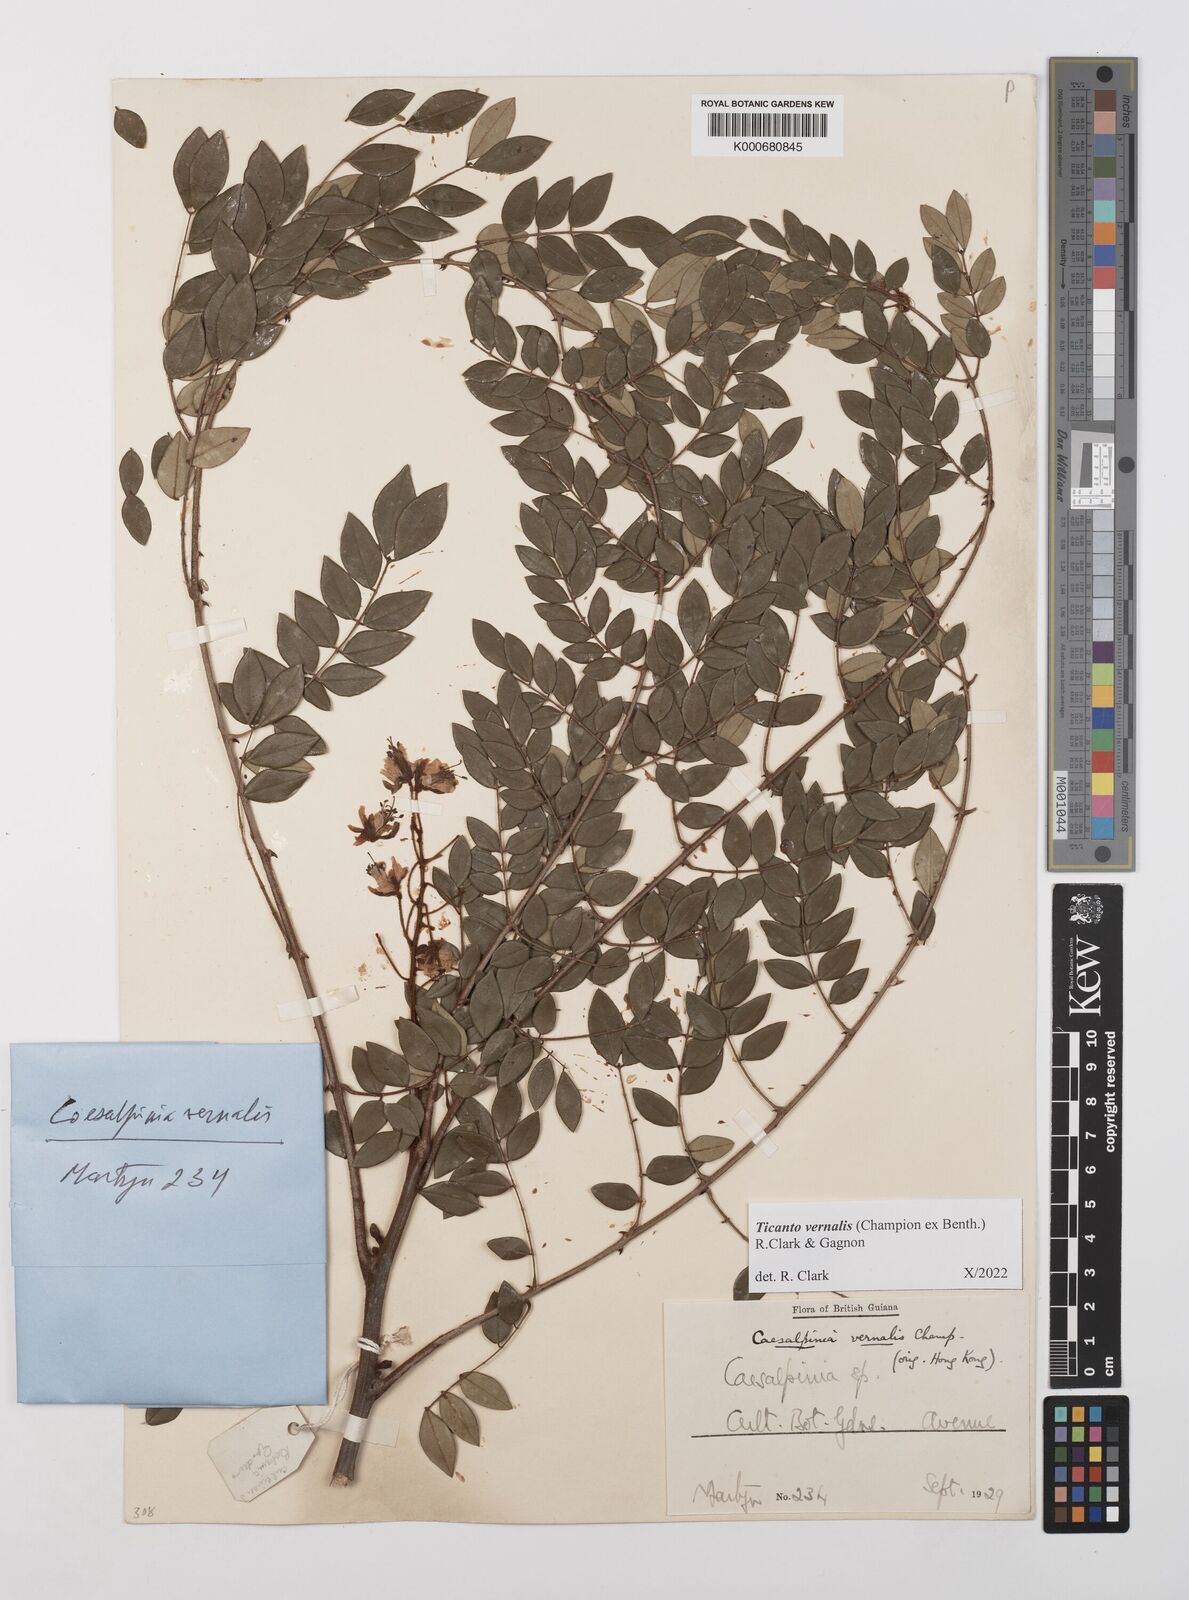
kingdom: Plantae
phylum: Tracheophyta
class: Magnoliopsida
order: Fabales
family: Fabaceae
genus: Caesalpinia
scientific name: Caesalpinia
